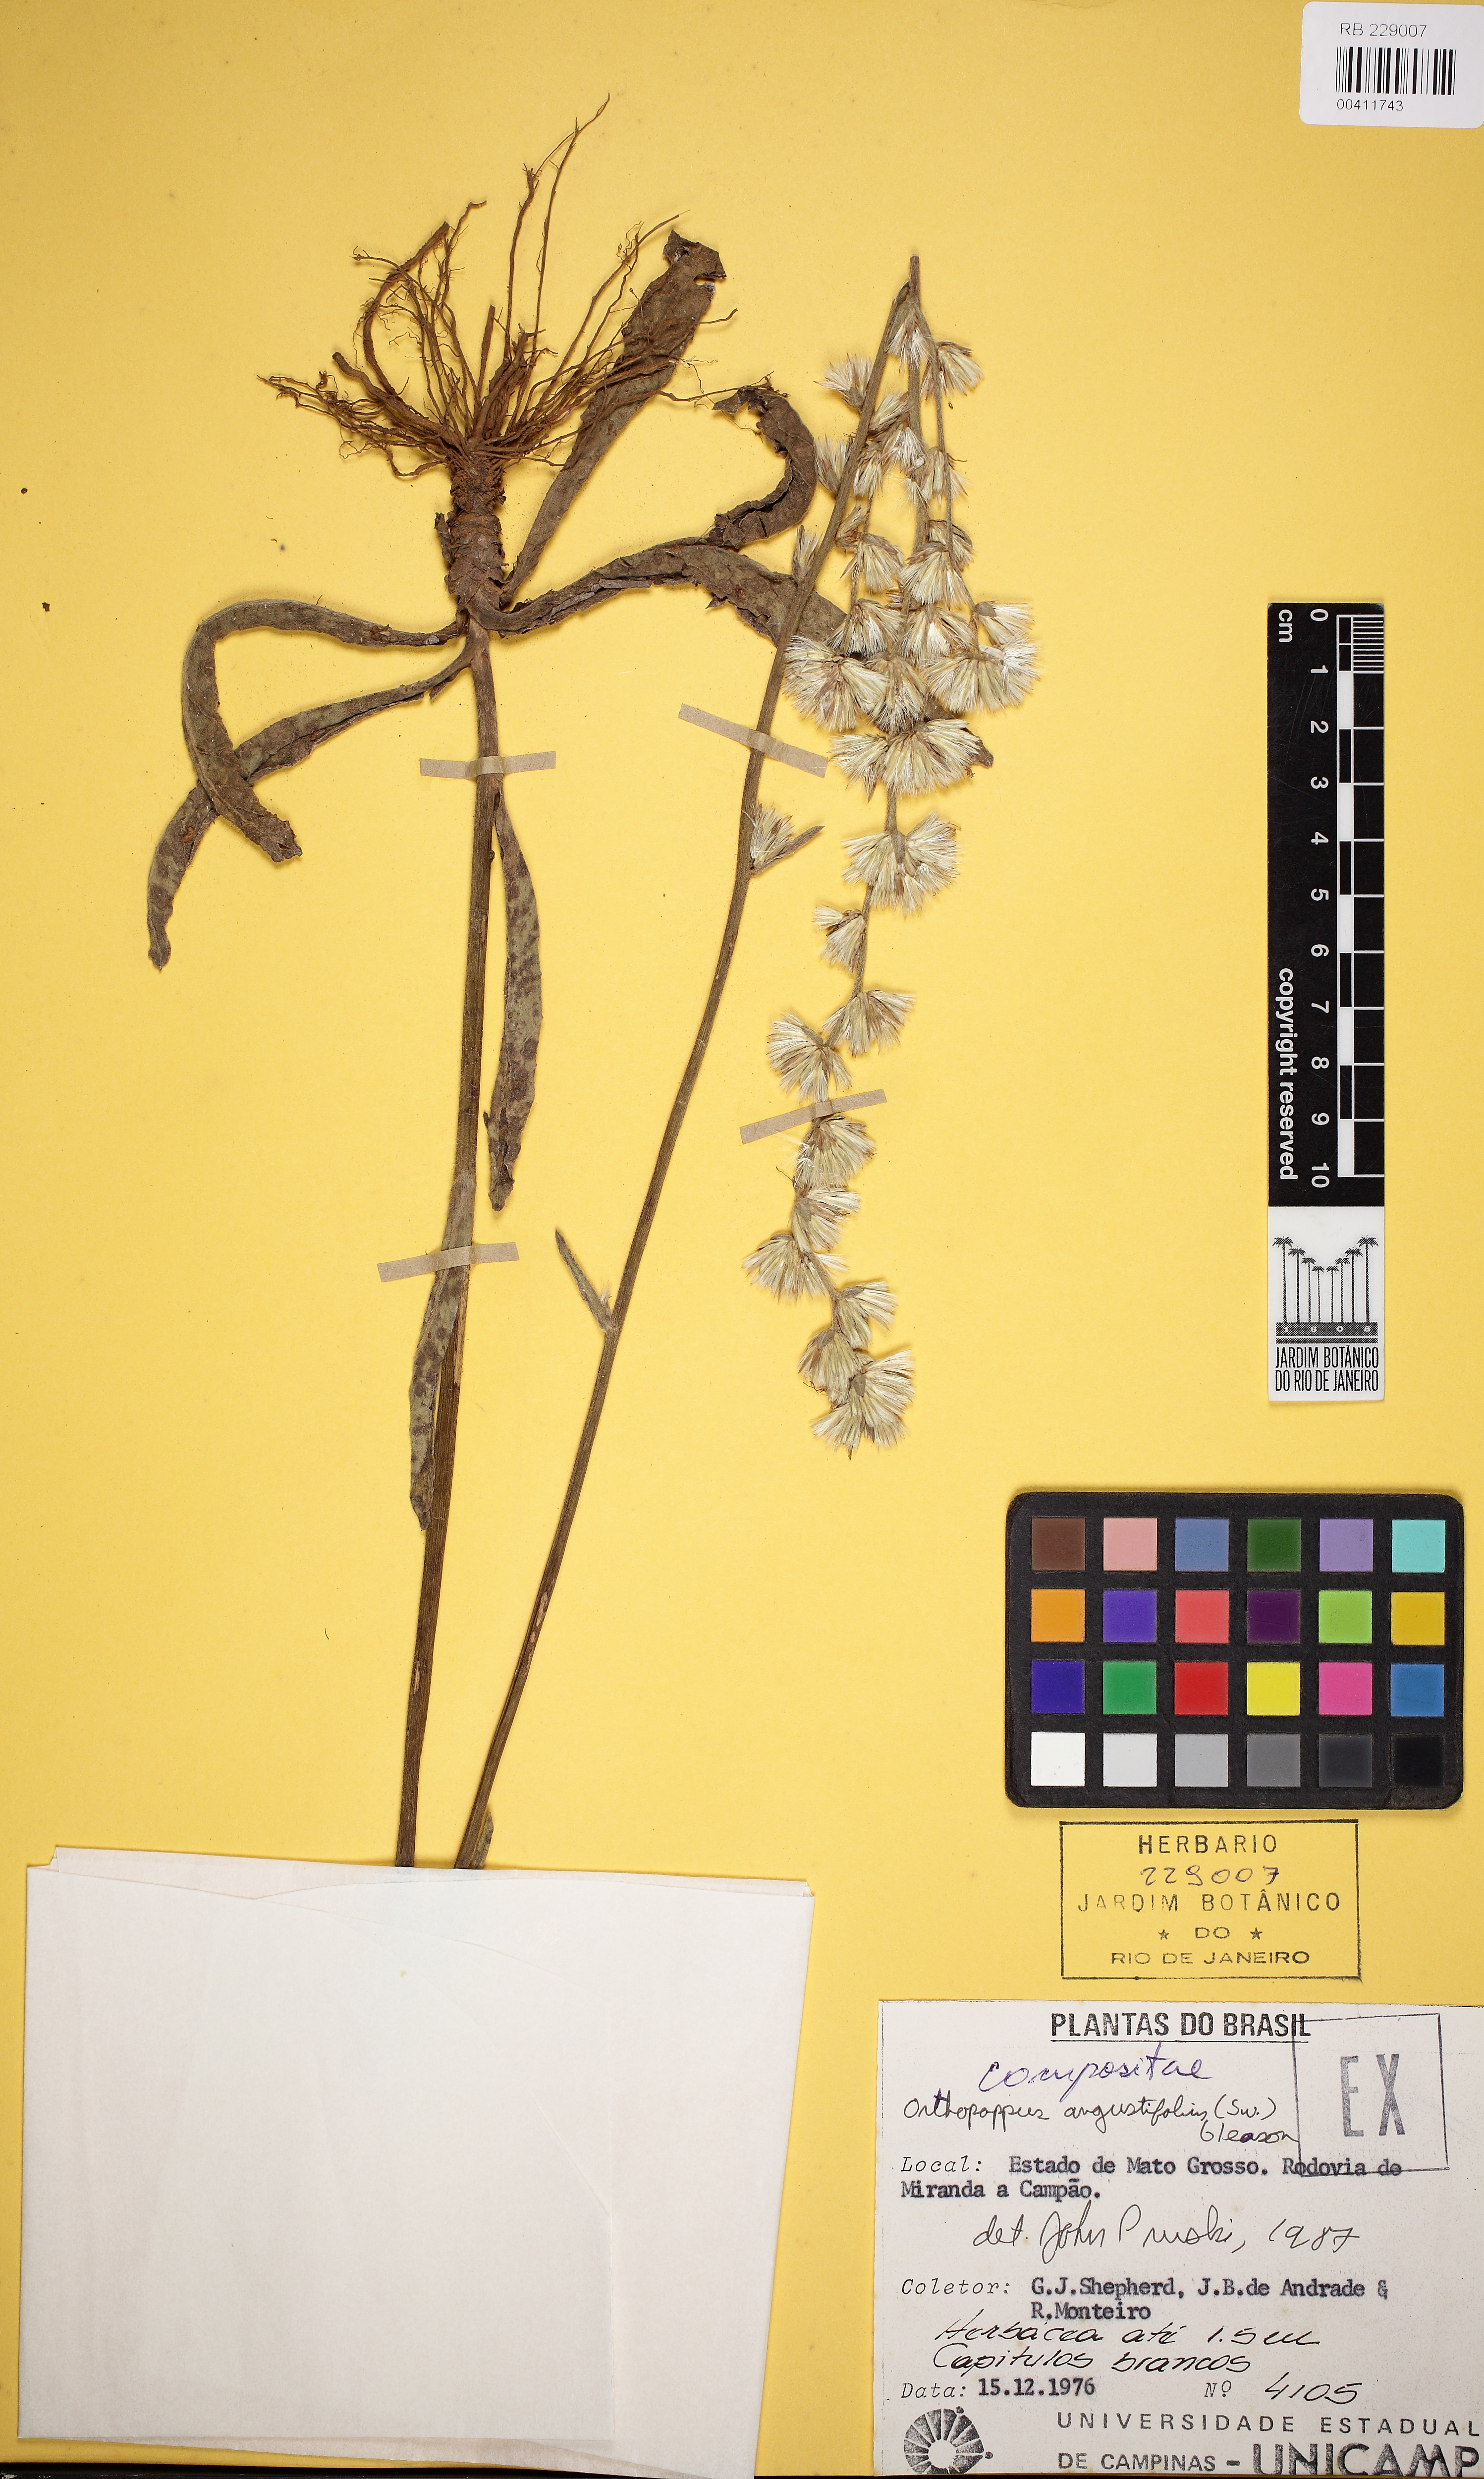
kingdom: Plantae
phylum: Tracheophyta
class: Magnoliopsida
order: Asterales
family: Asteraceae
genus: Orthopappus
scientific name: Orthopappus angustifolius
